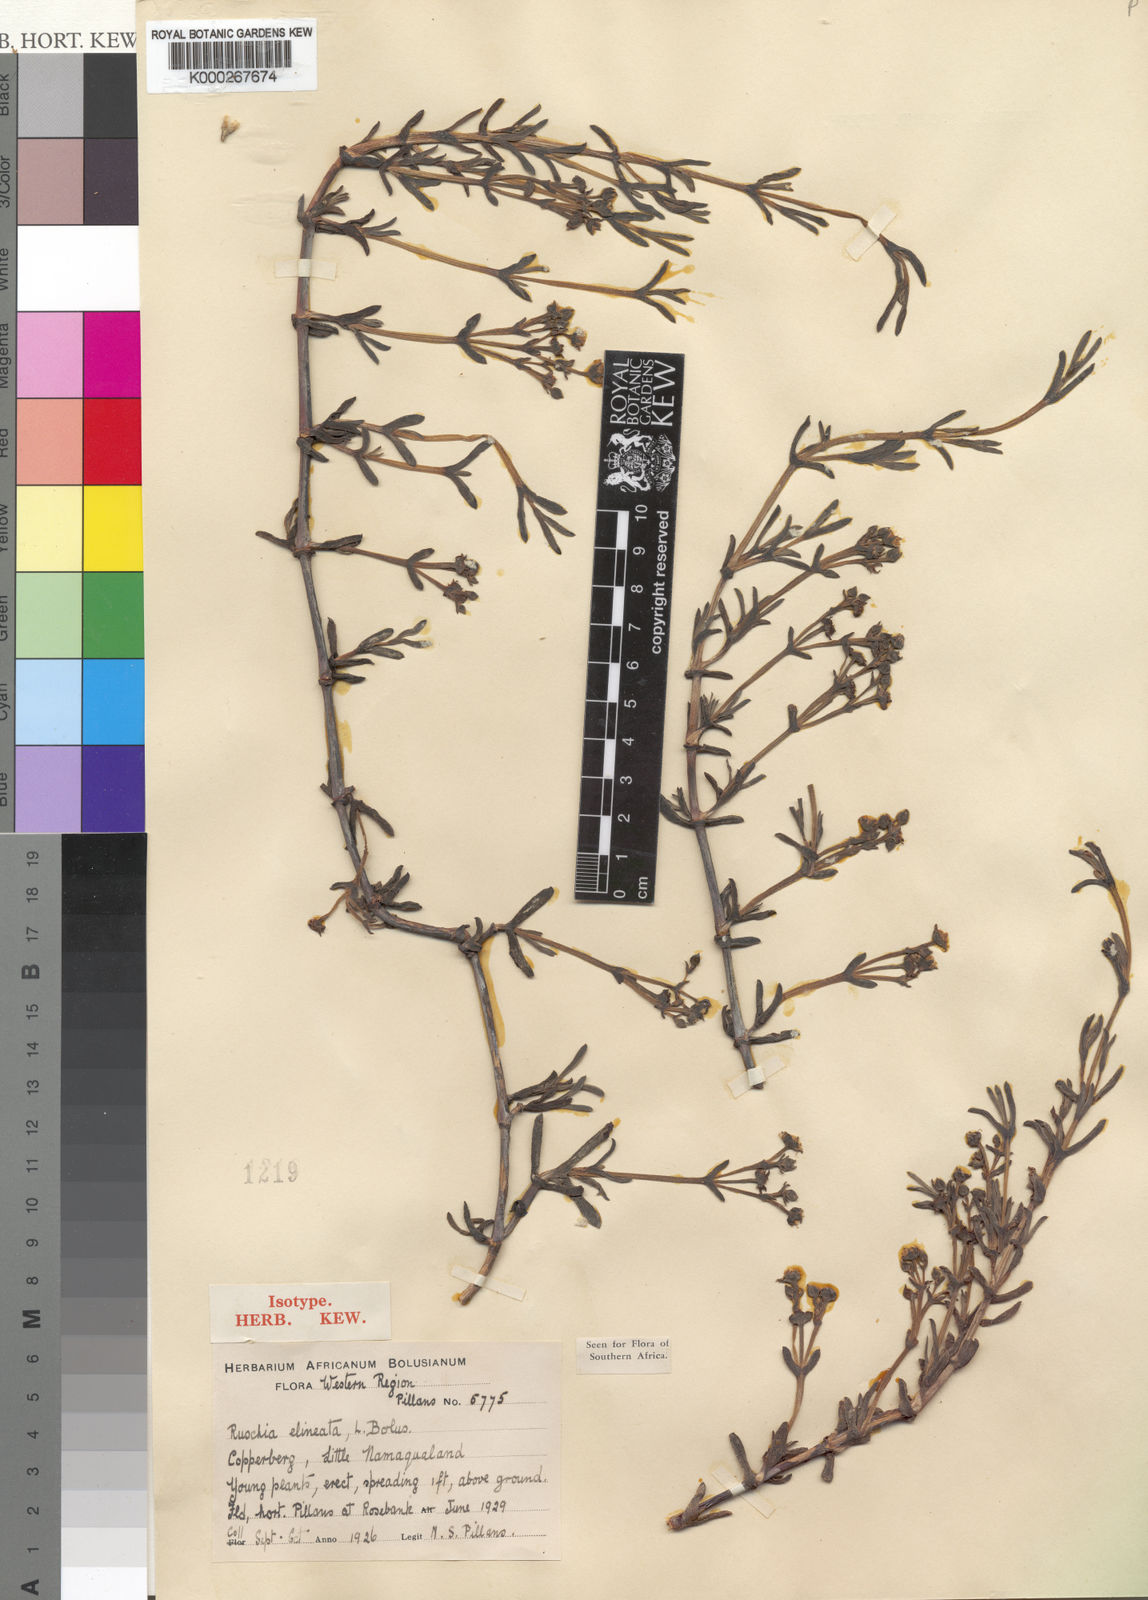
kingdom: Plantae
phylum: Tracheophyta
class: Magnoliopsida
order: Caryophyllales
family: Aizoaceae
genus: Ruschia
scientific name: Ruschia elineata
